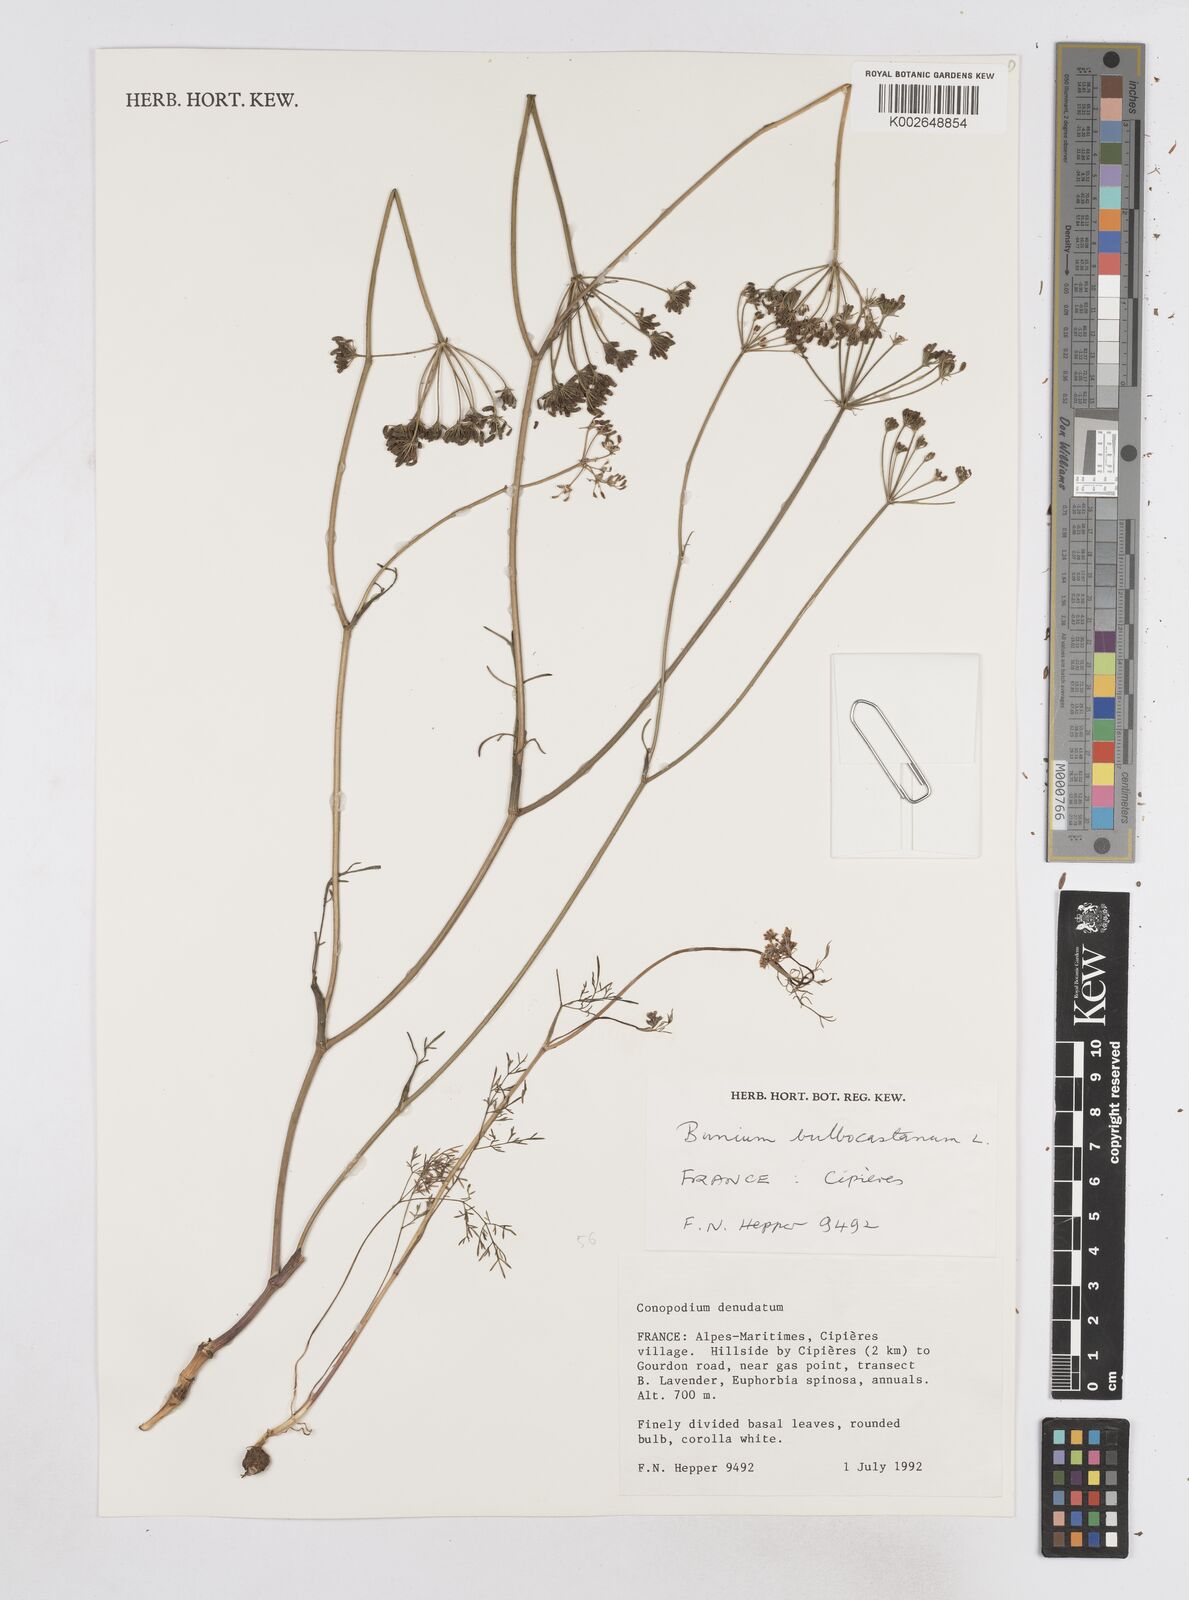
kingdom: Plantae
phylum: Tracheophyta
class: Magnoliopsida
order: Apiales
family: Apiaceae
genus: Bunium
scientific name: Bunium bulbocastanum
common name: Great pignut
